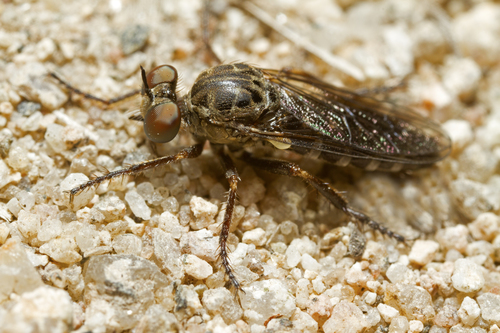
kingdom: Animalia
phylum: Arthropoda
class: Insecta
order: Diptera
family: Asilidae
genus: Paraphamartania
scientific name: Paraphamartania povoadaoensis
